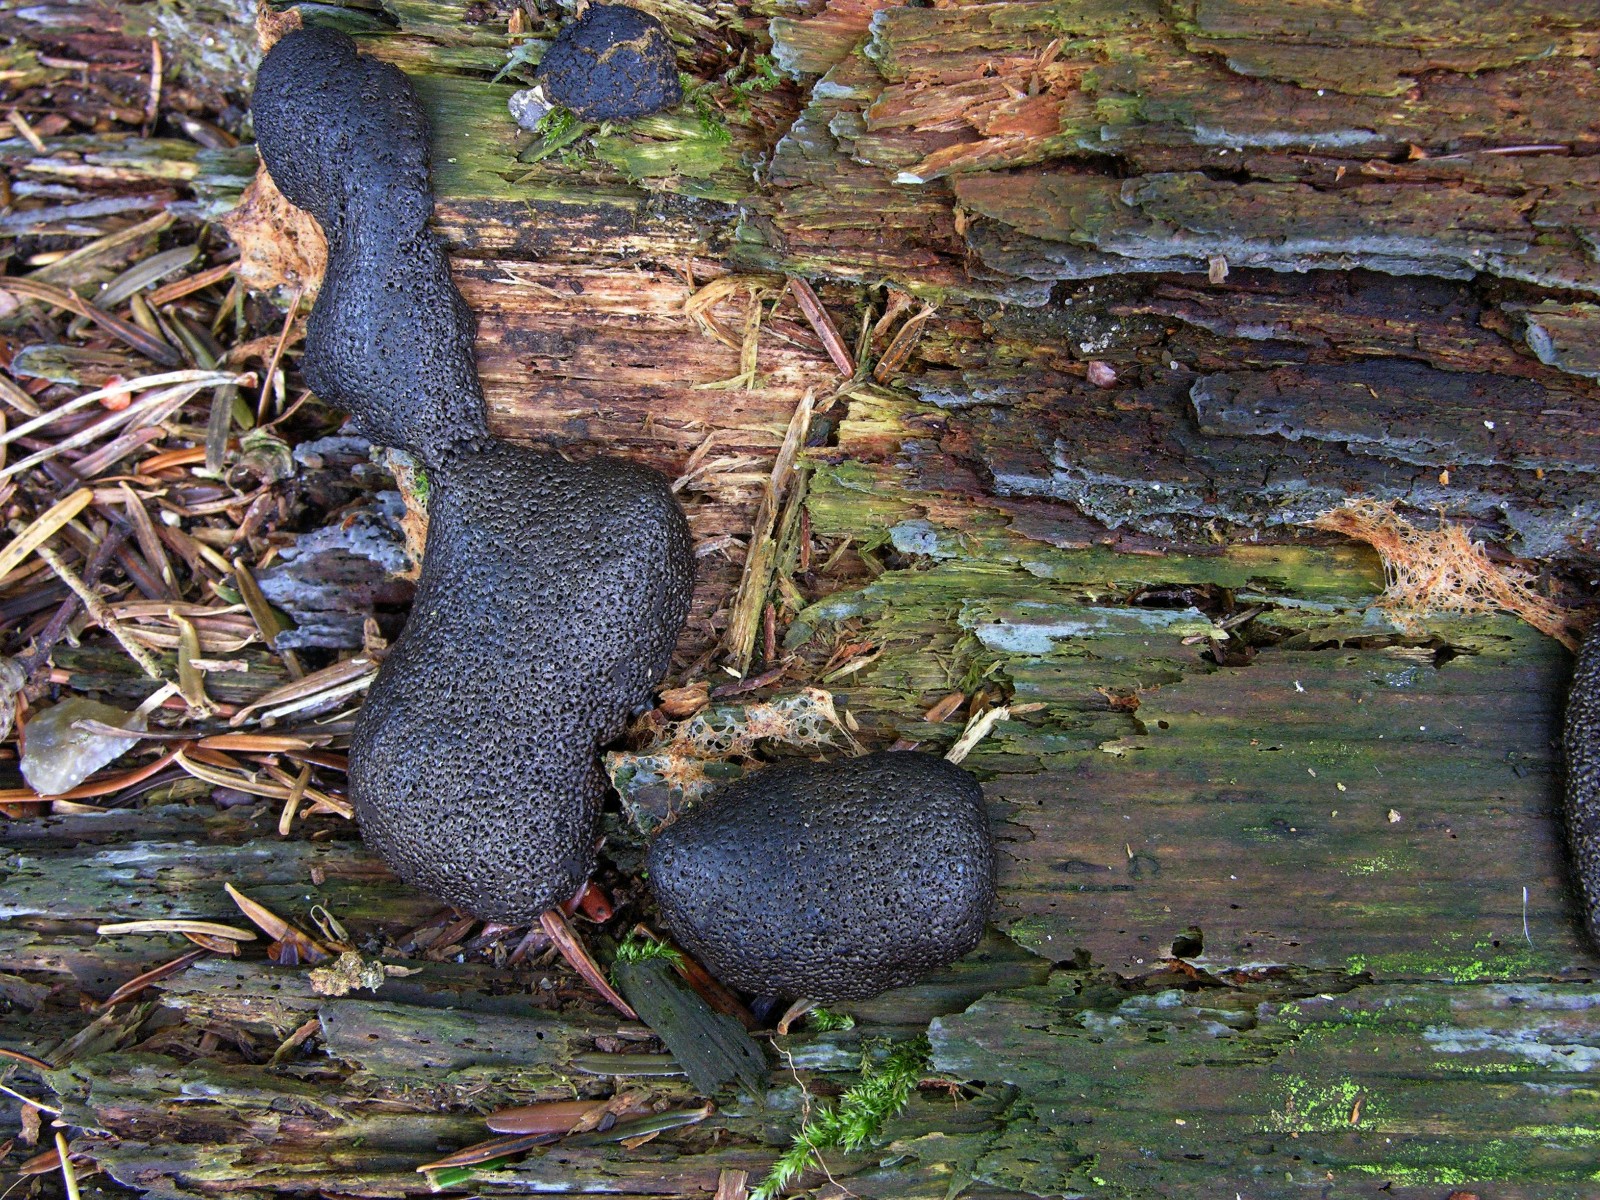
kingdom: Protozoa
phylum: Mycetozoa
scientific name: Mycetozoa
